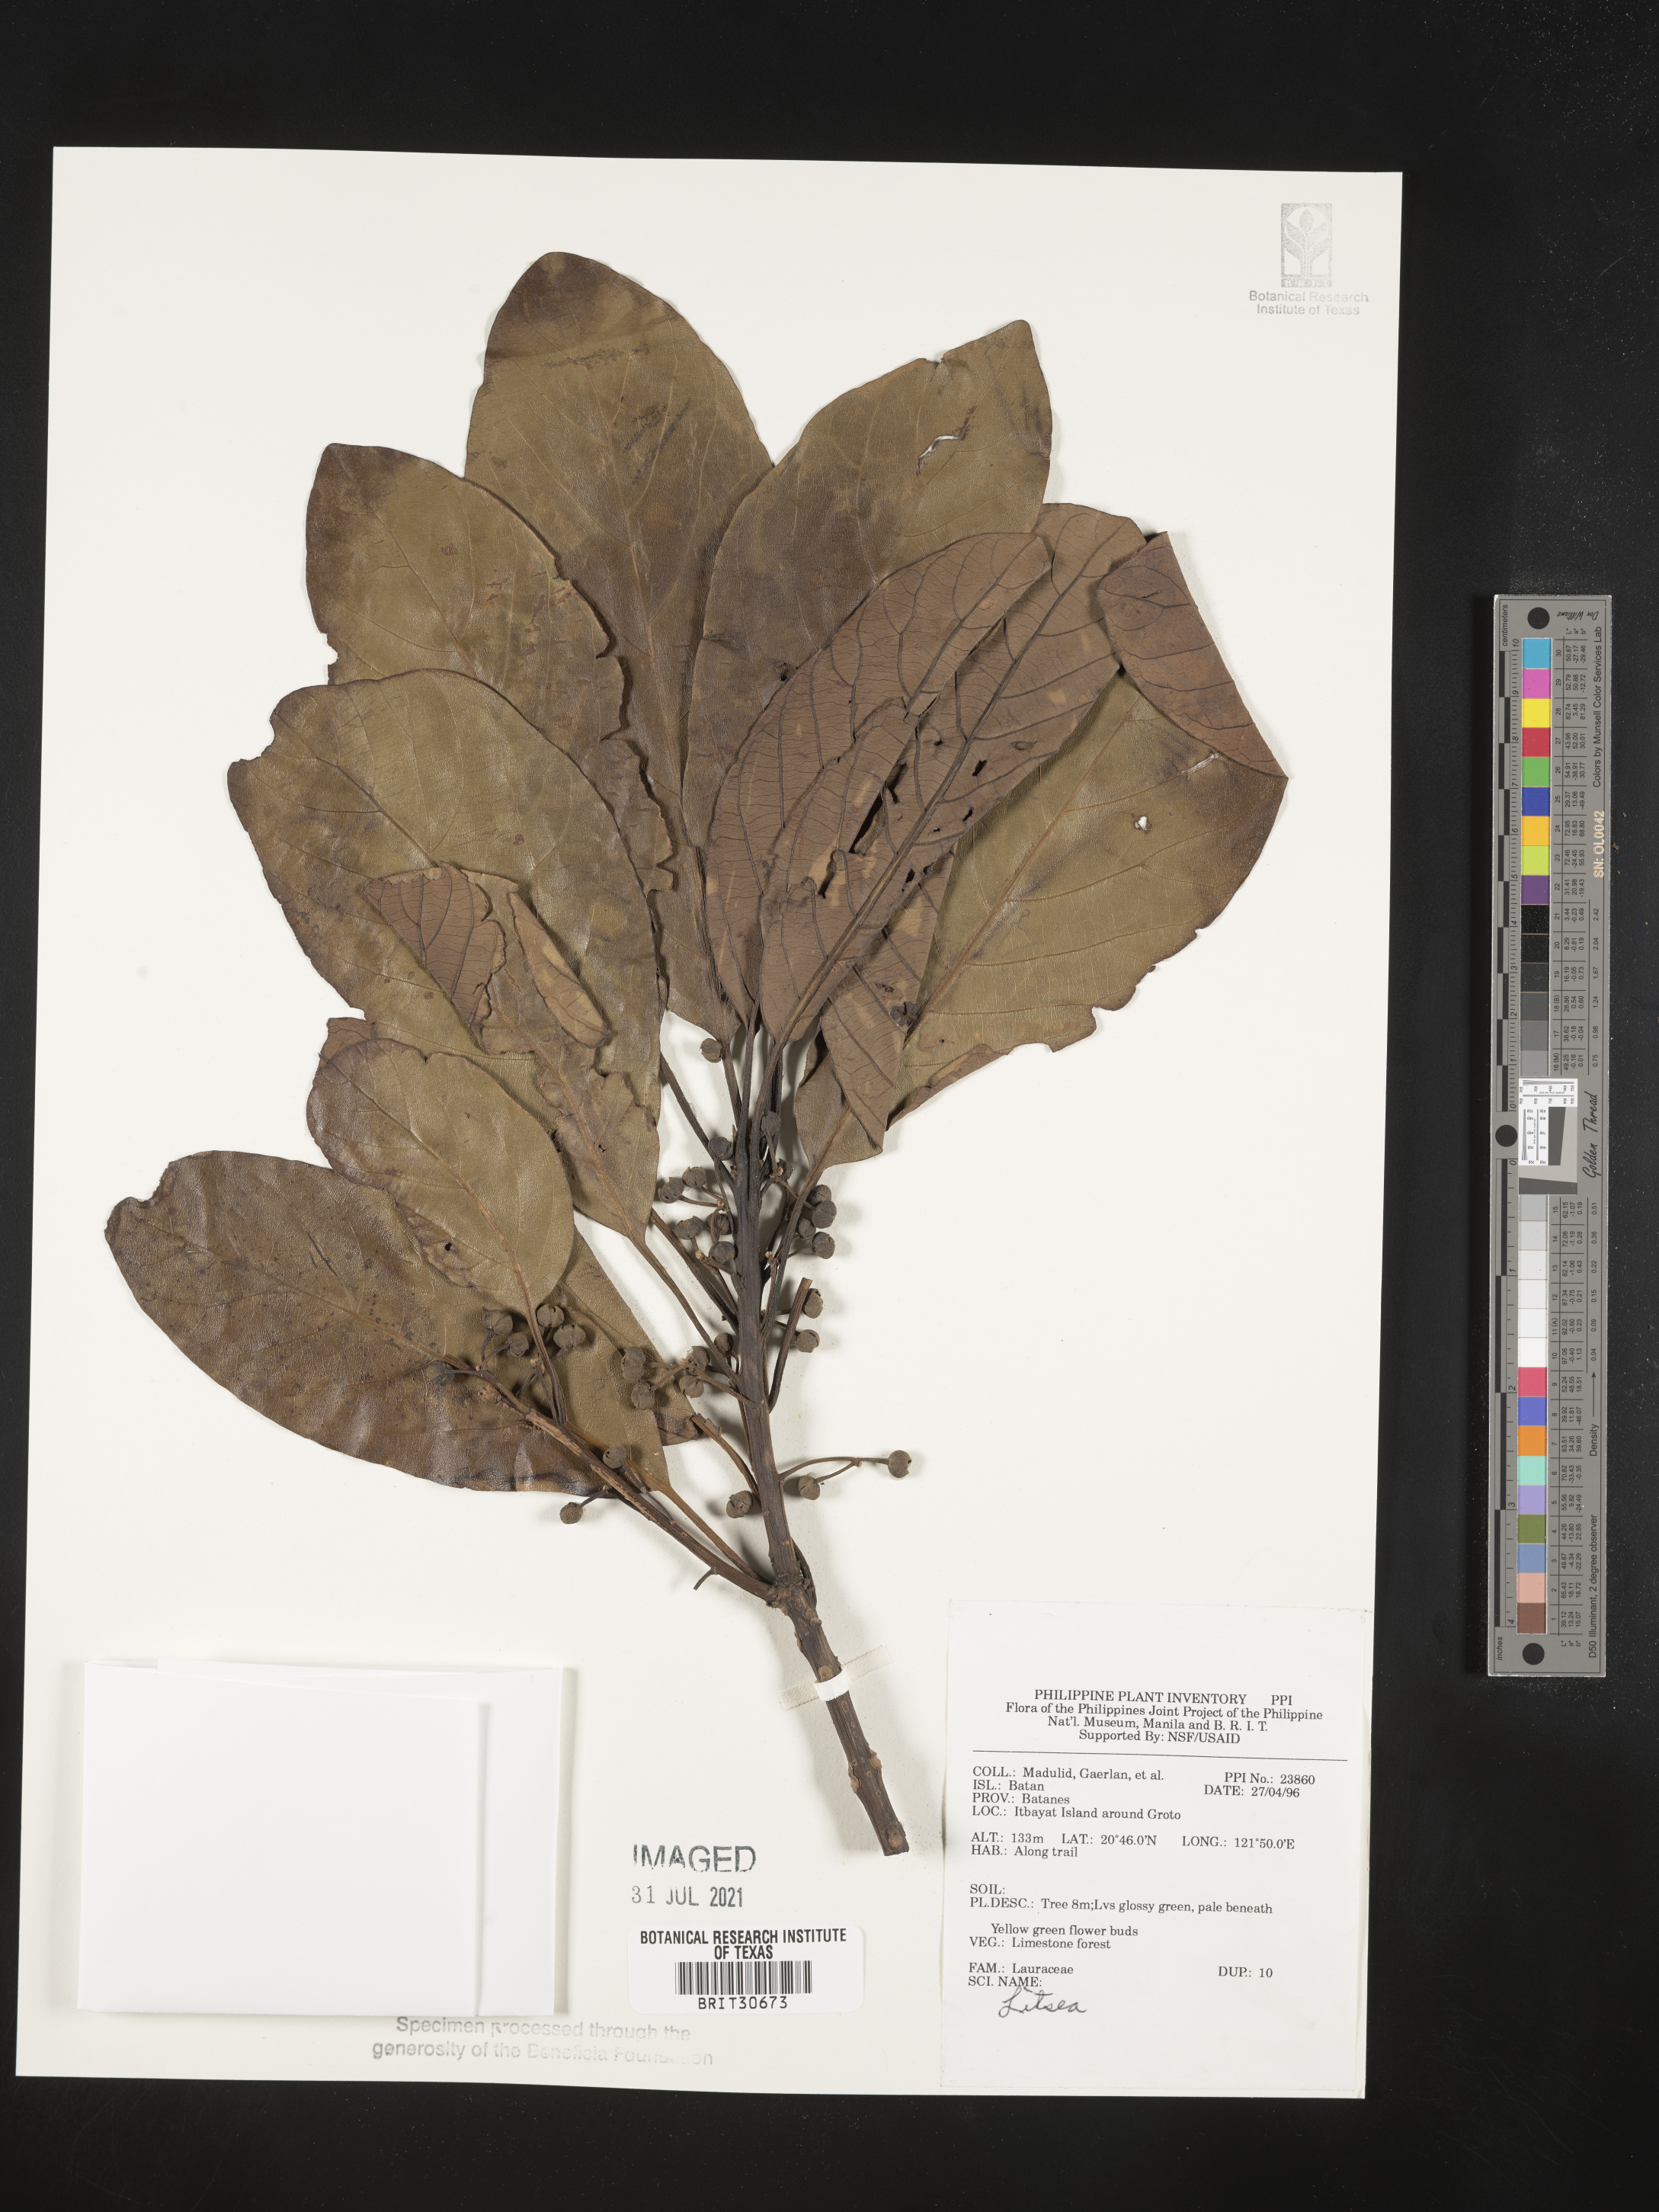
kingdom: Plantae
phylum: Tracheophyta
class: Magnoliopsida
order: Laurales
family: Lauraceae
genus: Litsea
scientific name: Litsea
